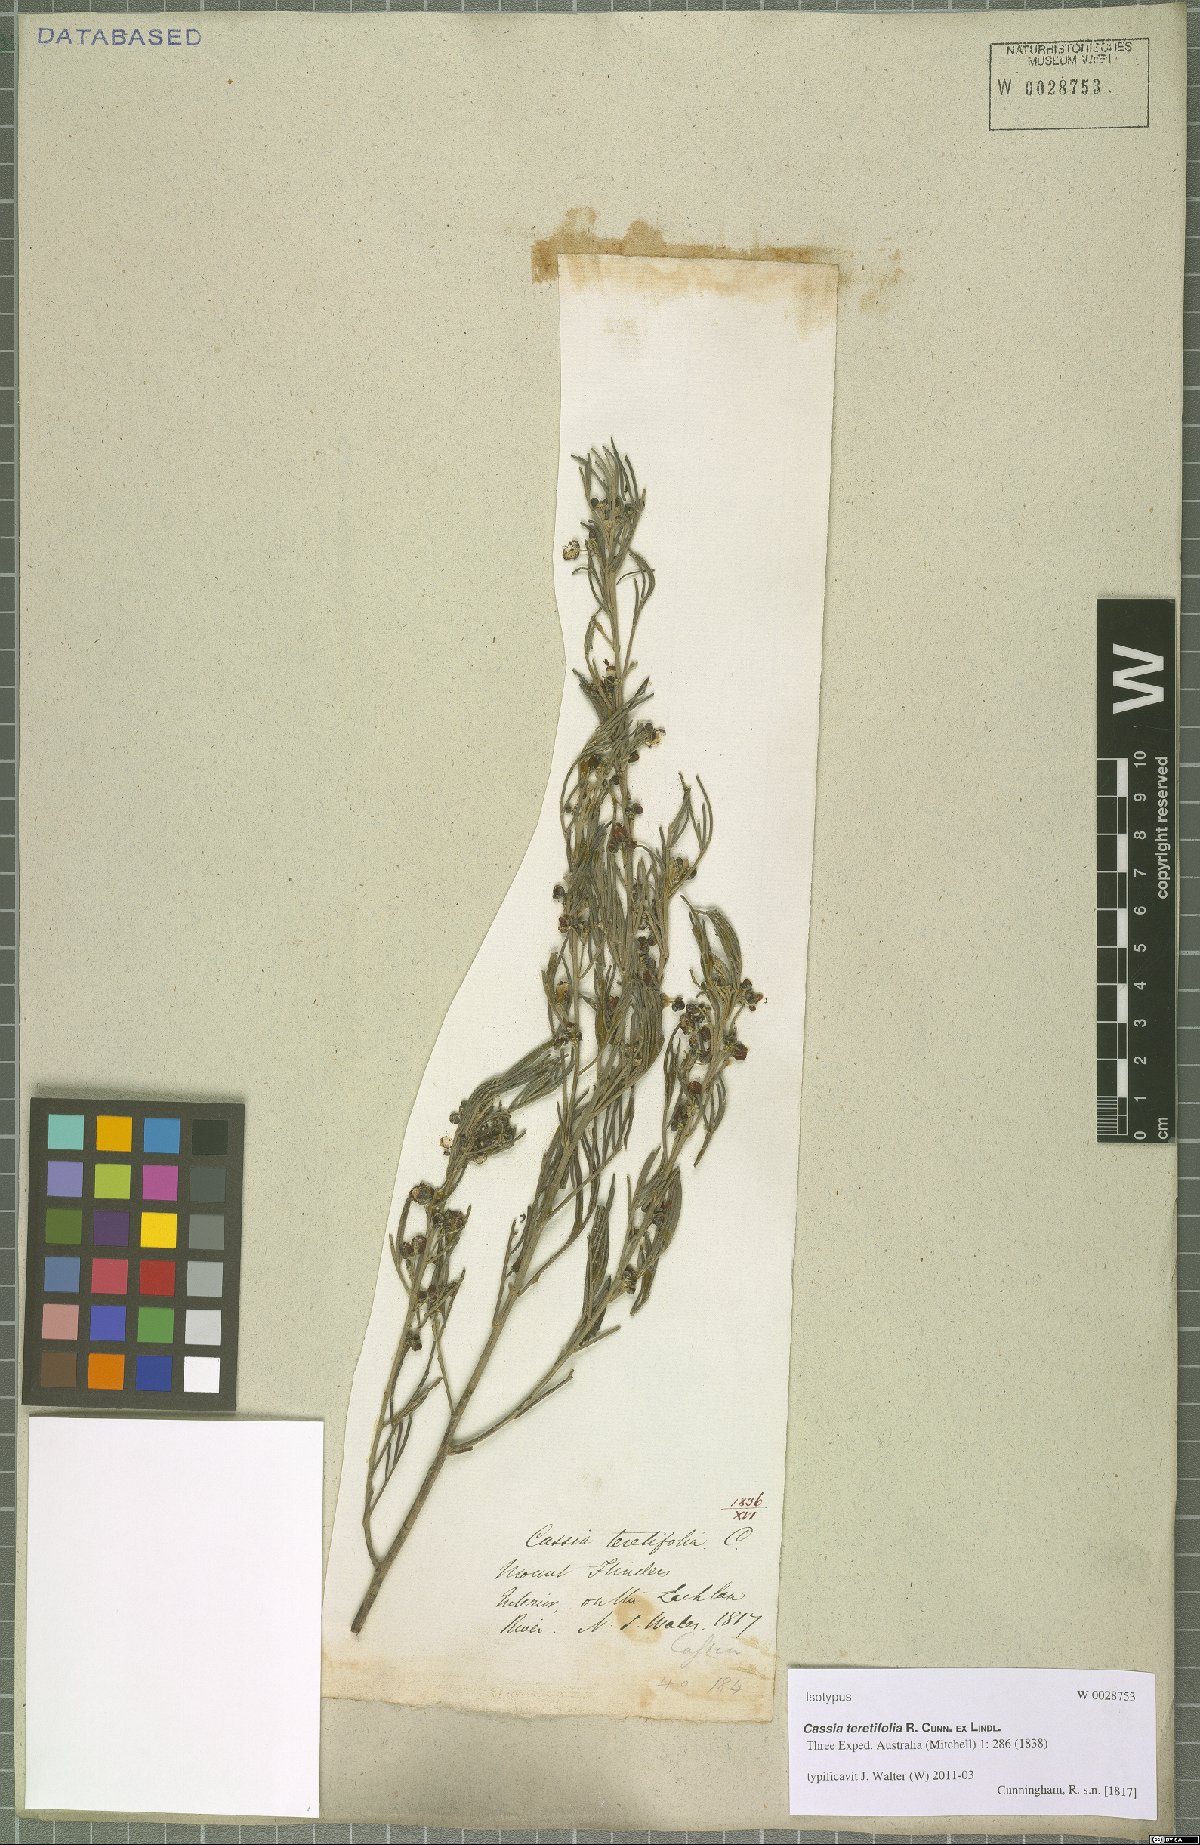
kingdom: Plantae
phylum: Tracheophyta
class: Magnoliopsida
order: Fabales
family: Fabaceae
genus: Senna
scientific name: Senna artemisioides
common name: Burnt-leaved acacia
